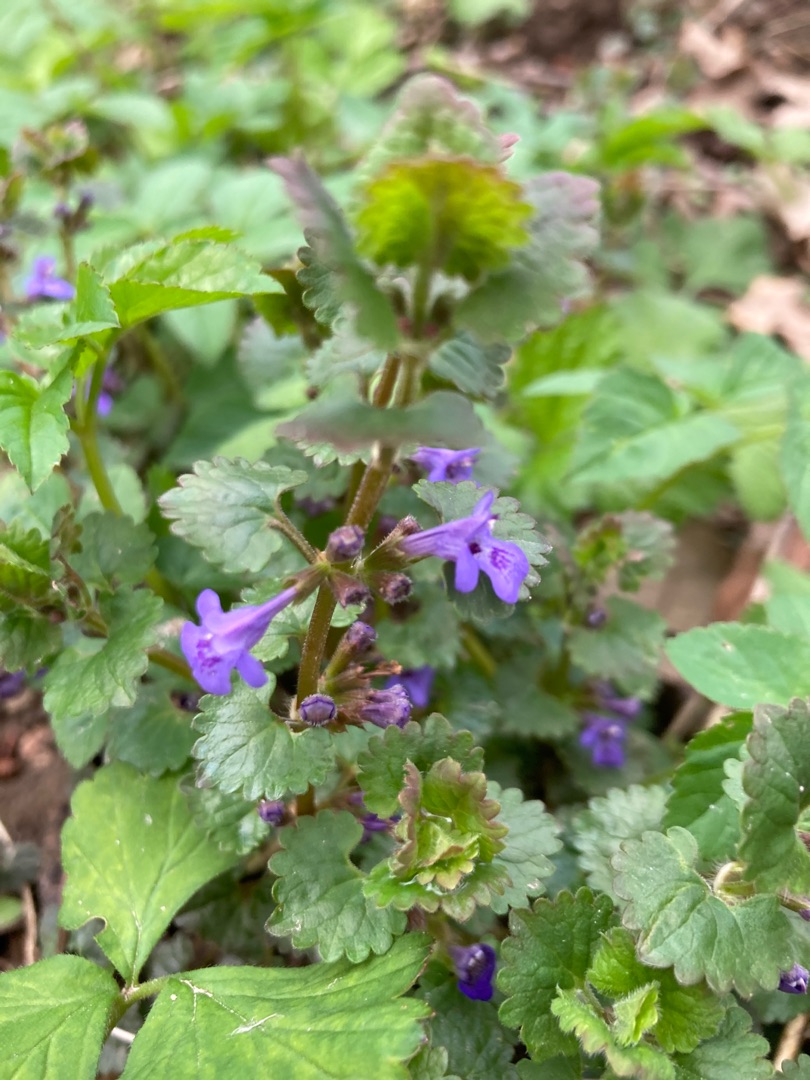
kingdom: Plantae
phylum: Tracheophyta
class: Magnoliopsida
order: Lamiales
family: Lamiaceae
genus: Glechoma
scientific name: Glechoma hederacea
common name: Korsknap
